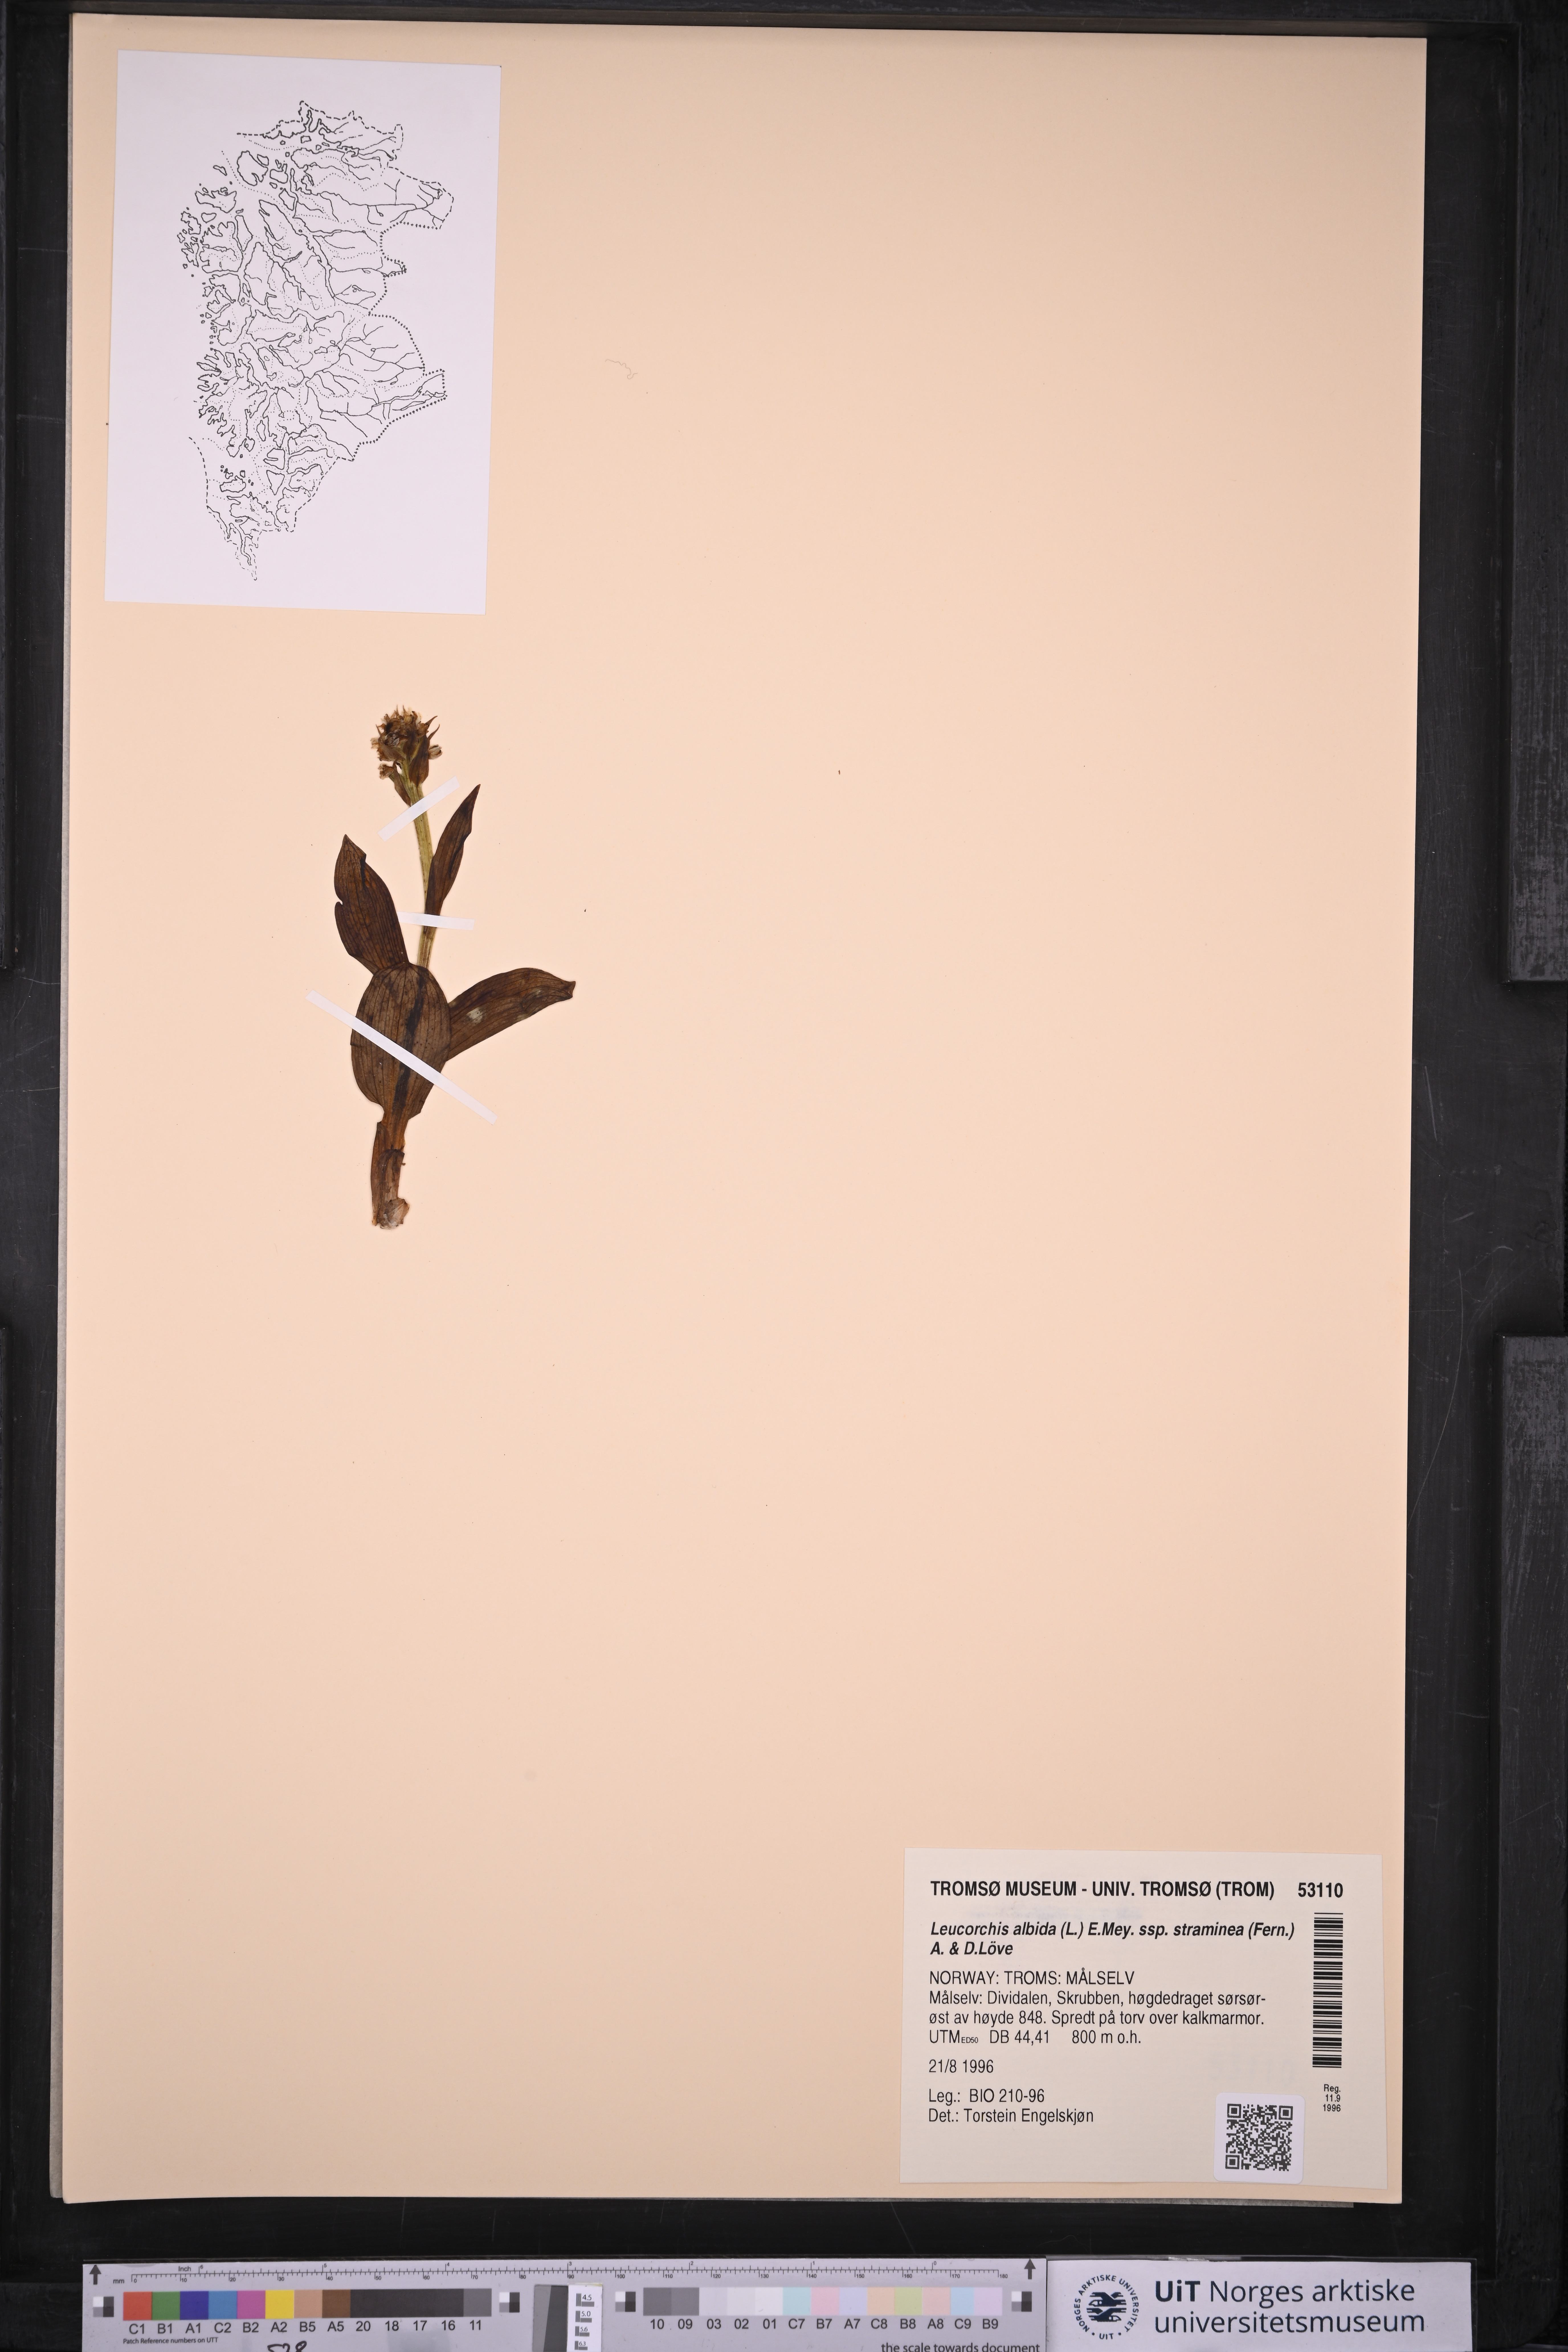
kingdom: Plantae
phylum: Tracheophyta
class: Liliopsida
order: Asparagales
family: Orchidaceae
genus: Pseudorchis
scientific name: Pseudorchis straminea
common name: Vanilla-scented bog orchid
